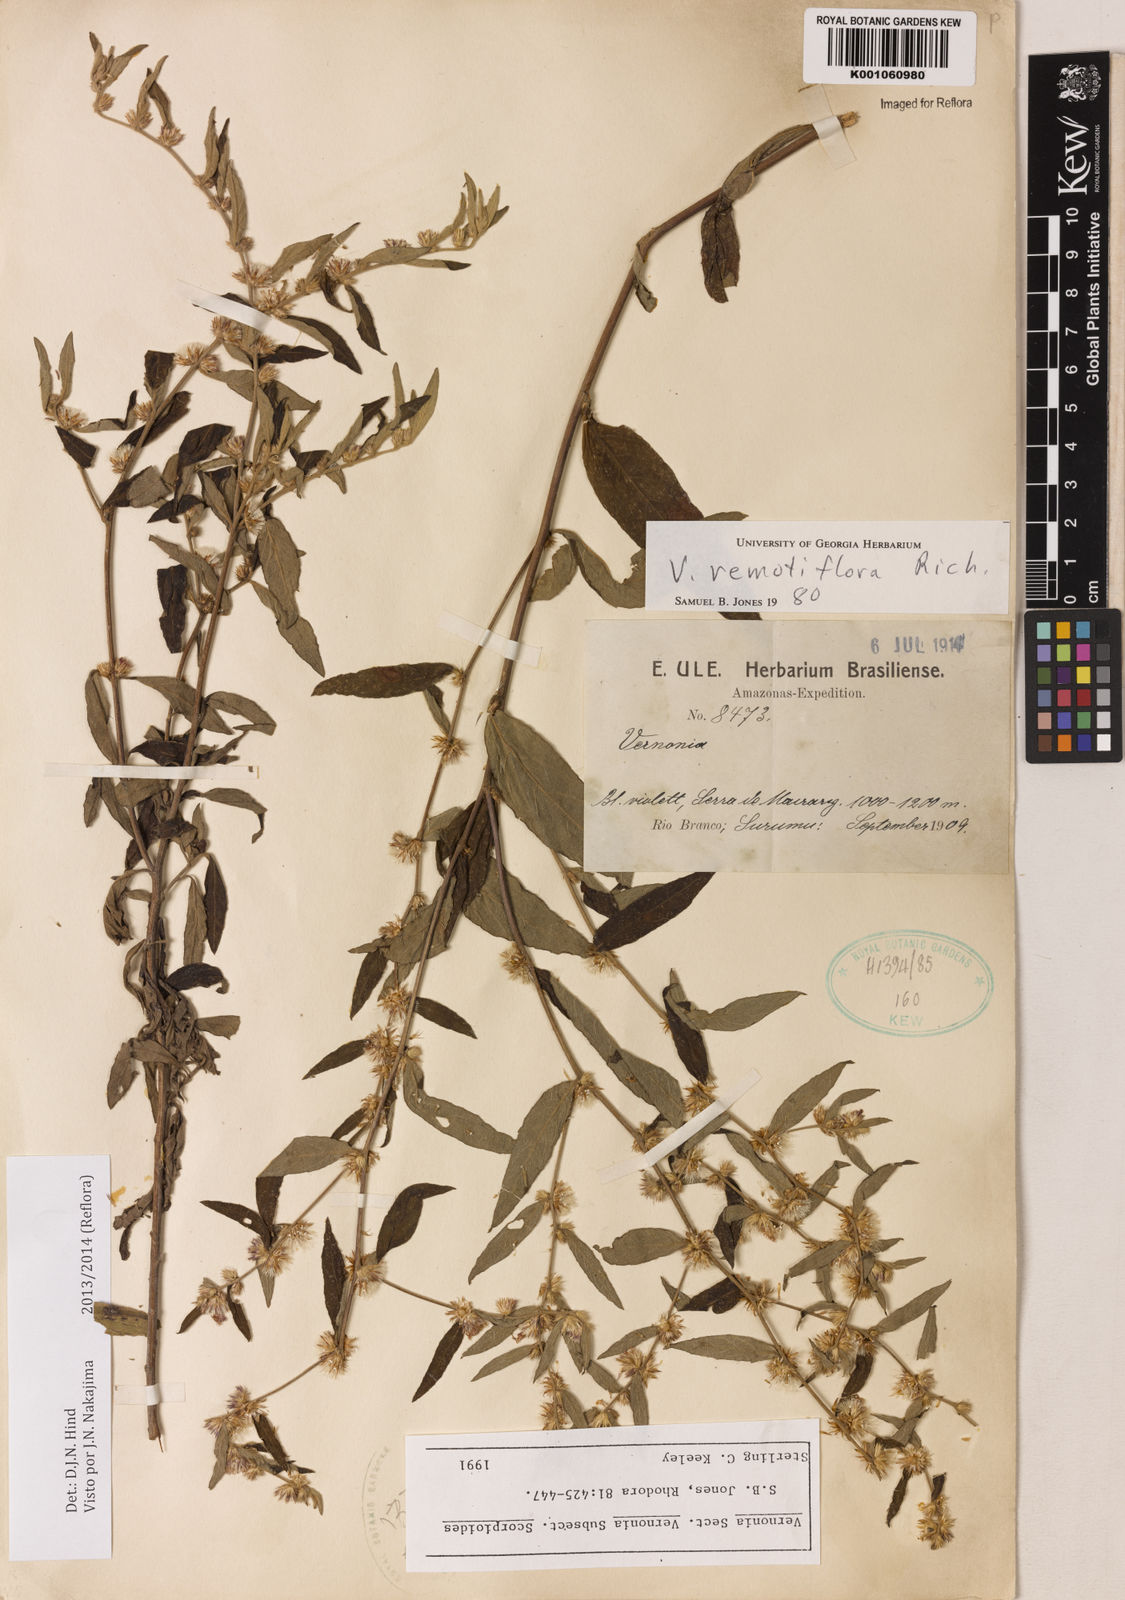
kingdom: Plantae
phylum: Tracheophyta
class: Magnoliopsida
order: Asterales
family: Asteraceae
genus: Lepidaploa
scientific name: Lepidaploa remotiflora
